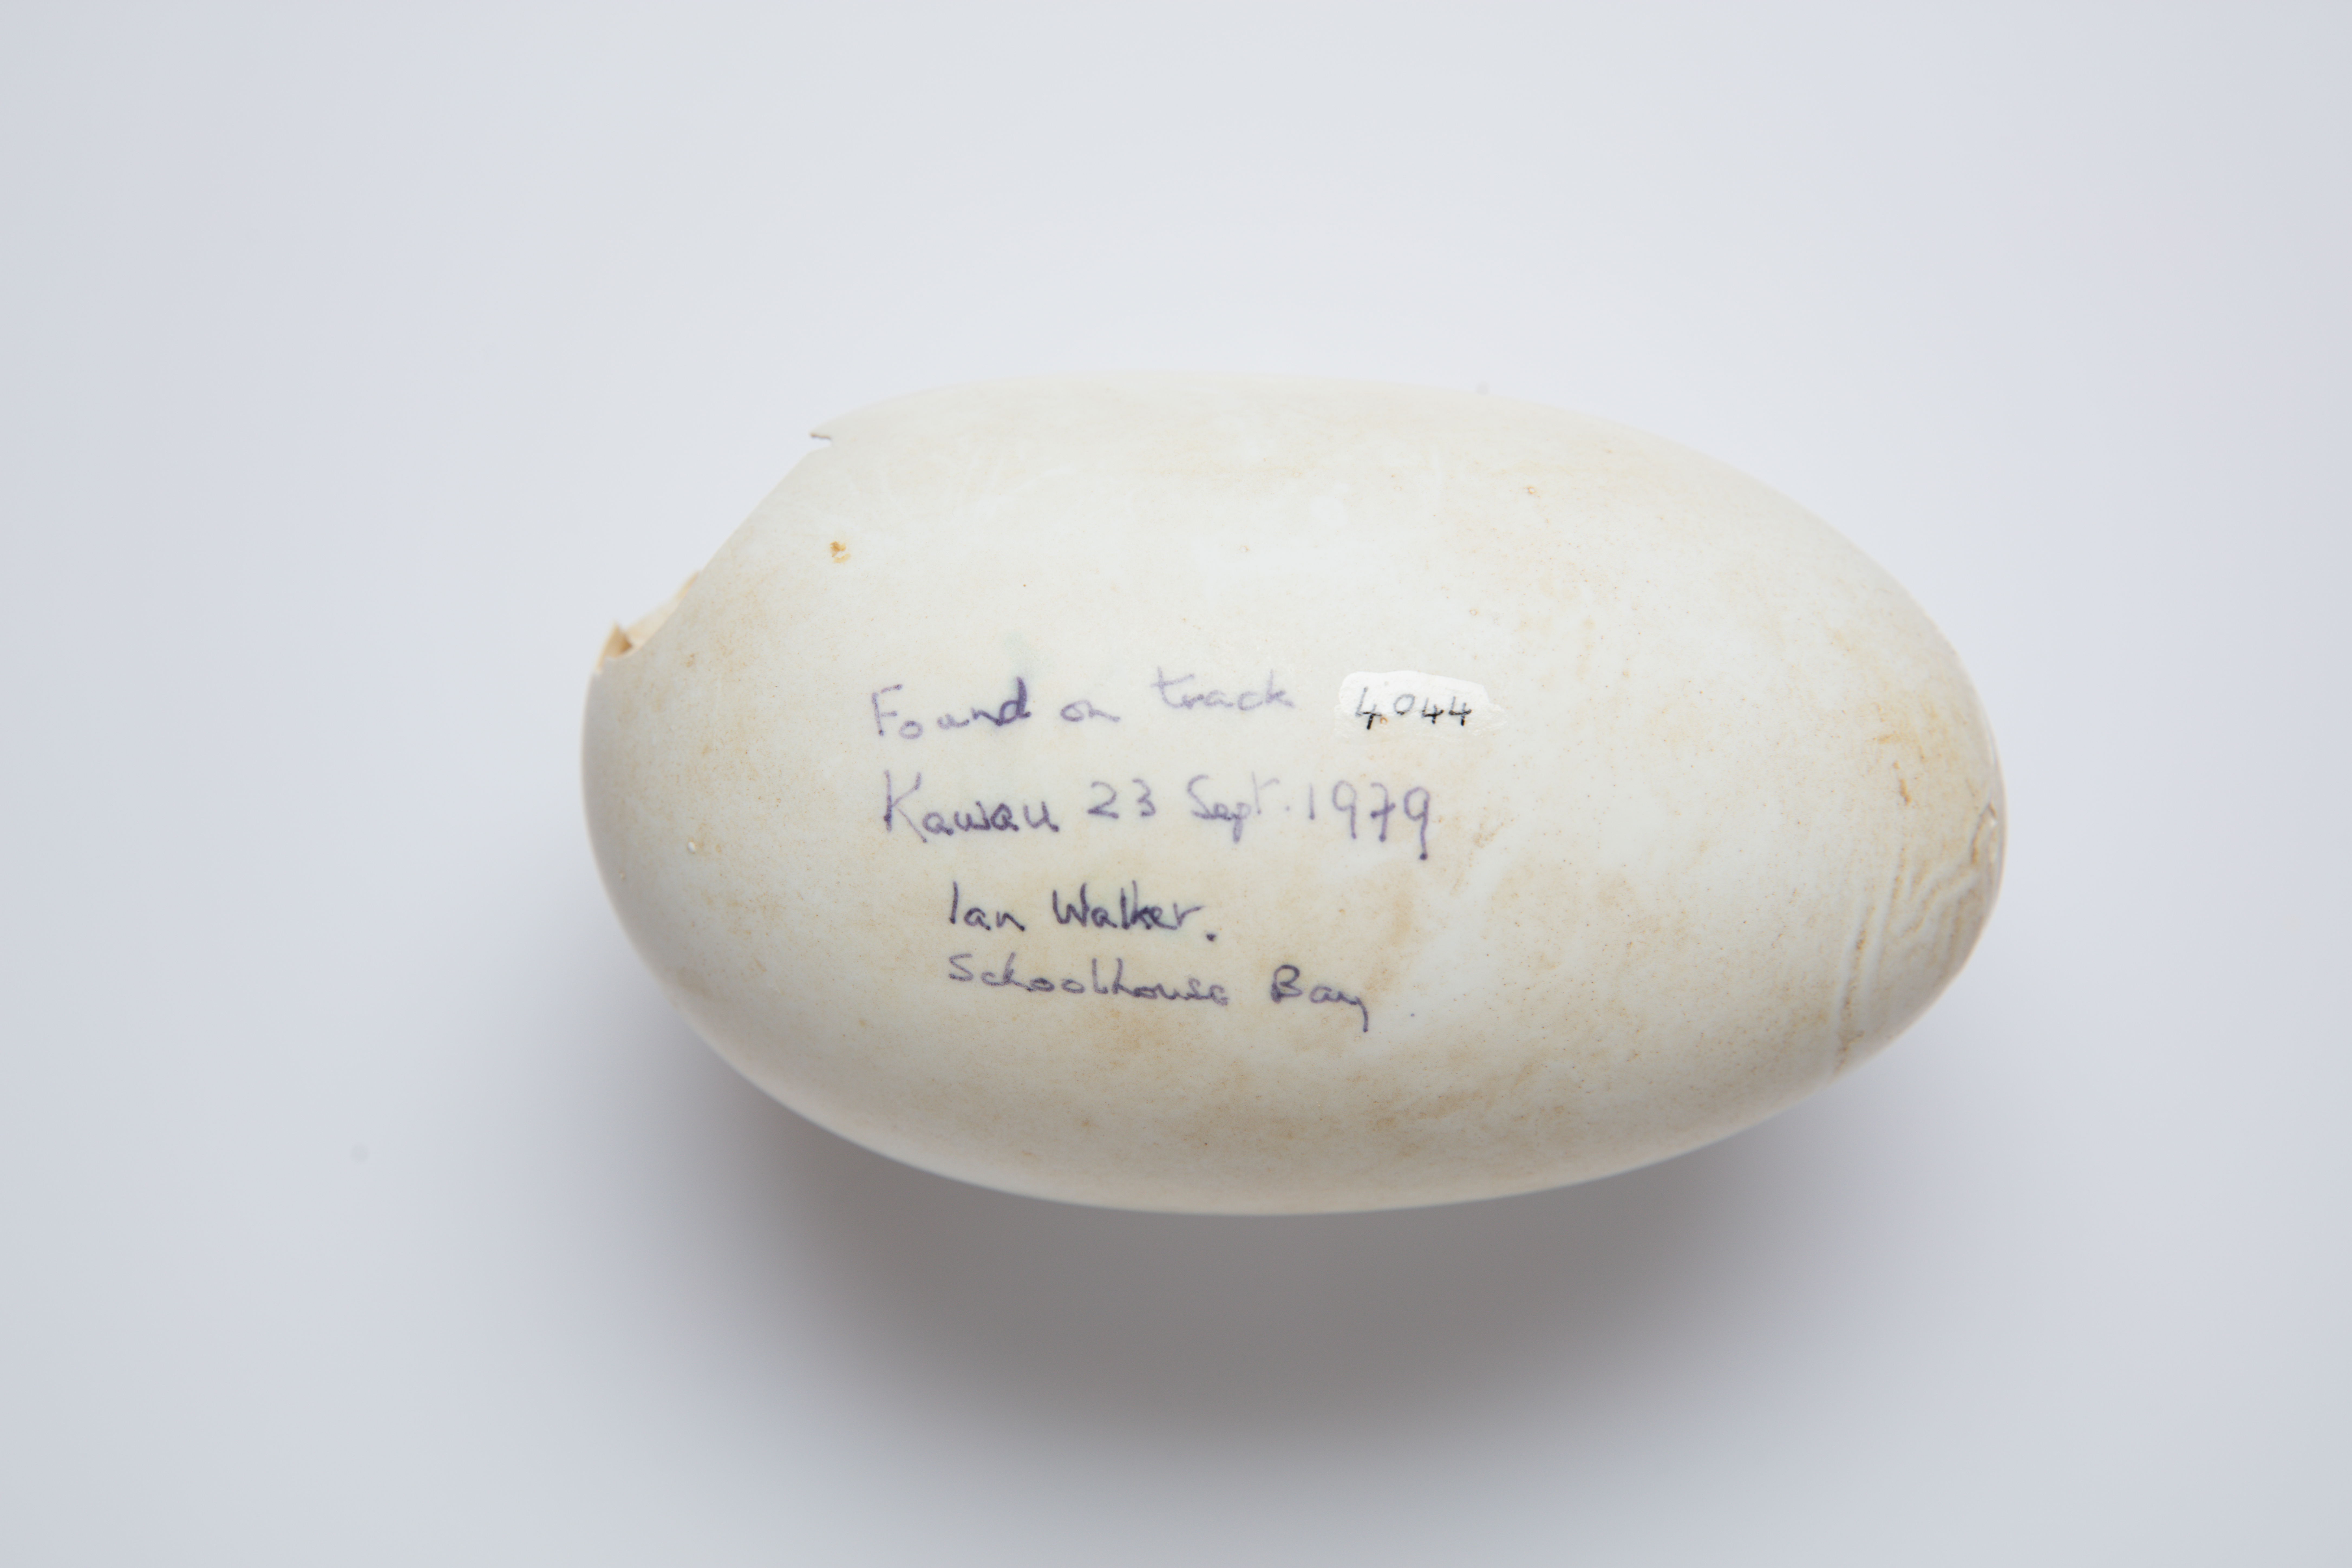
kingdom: Animalia
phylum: Chordata
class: Aves
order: Apterygiformes
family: Apterygidae
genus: Apteryx
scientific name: Apteryx mantelli
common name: North island brown kiwi
